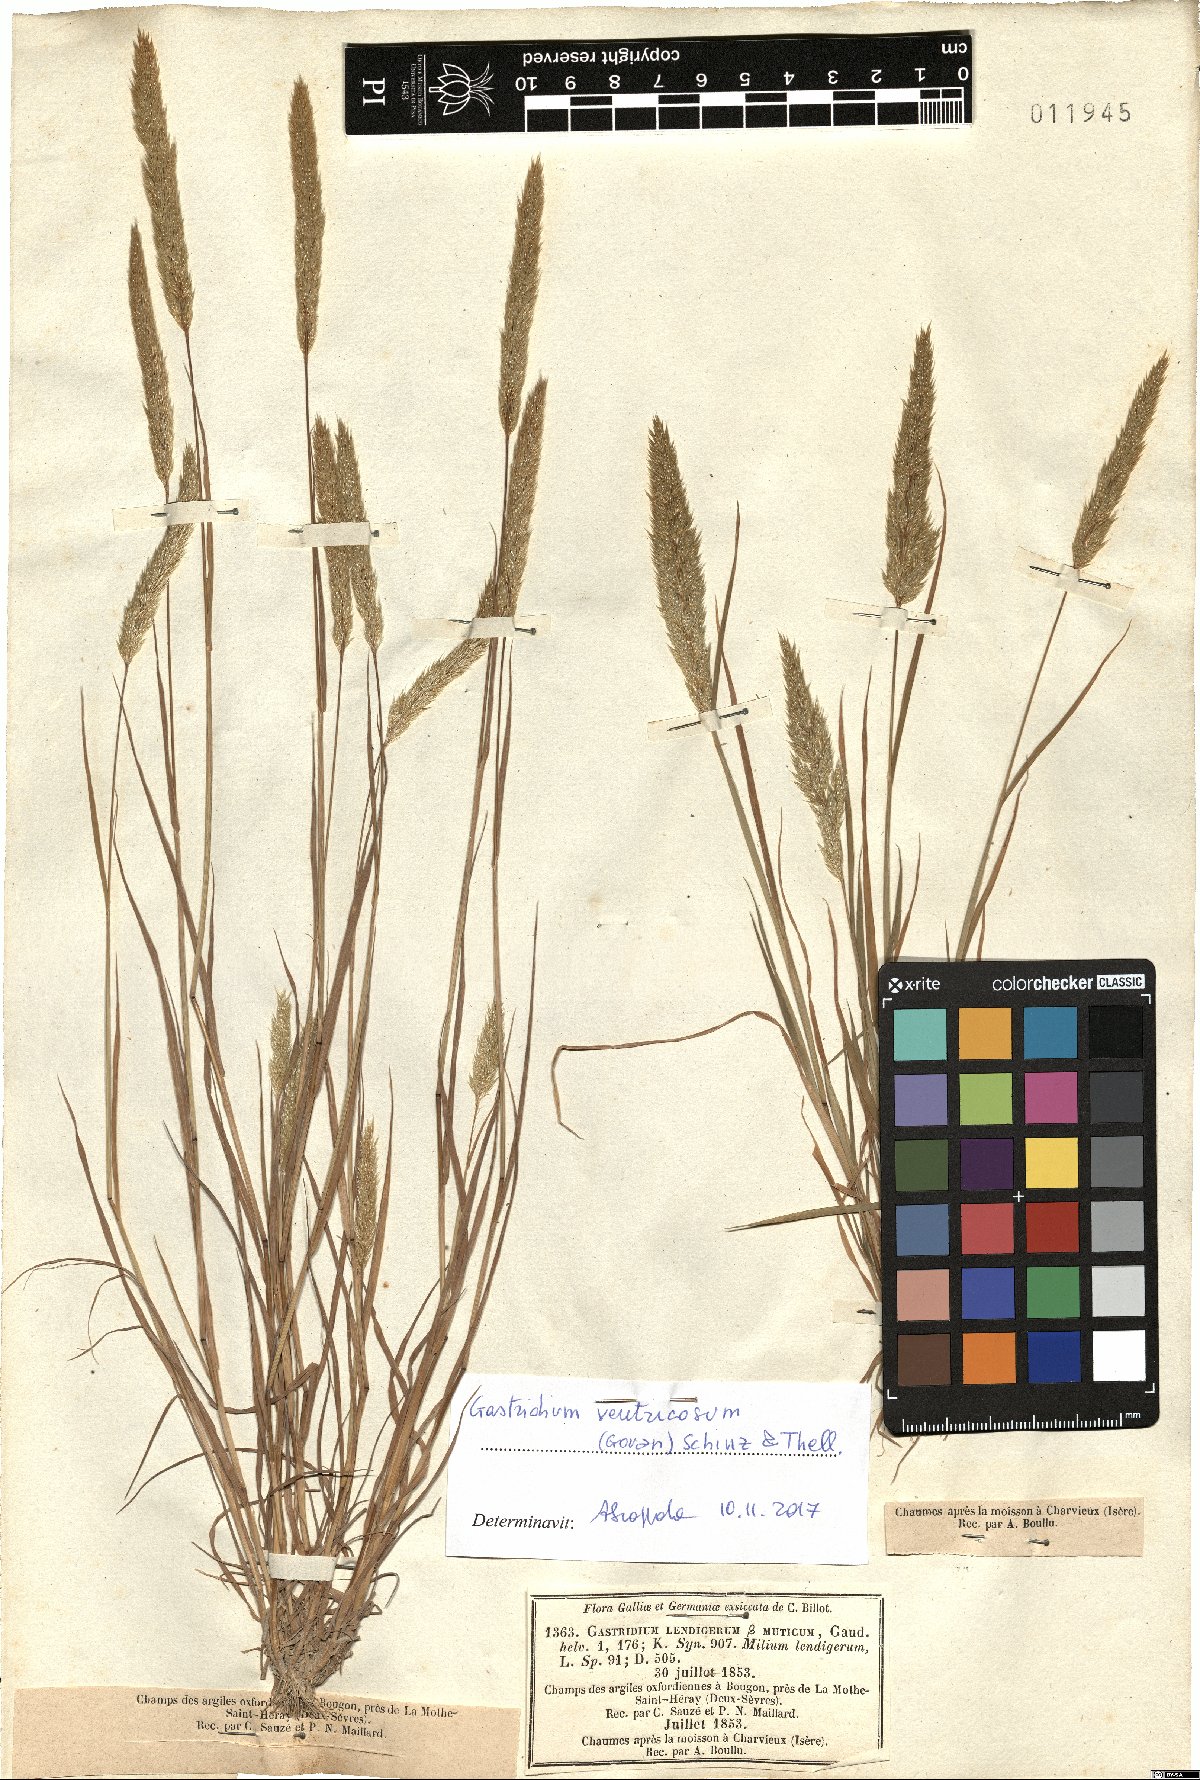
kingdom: Plantae
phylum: Tracheophyta
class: Liliopsida
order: Poales
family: Poaceae
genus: Gastridium
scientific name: Gastridium ventricosum
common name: Nit-grass
